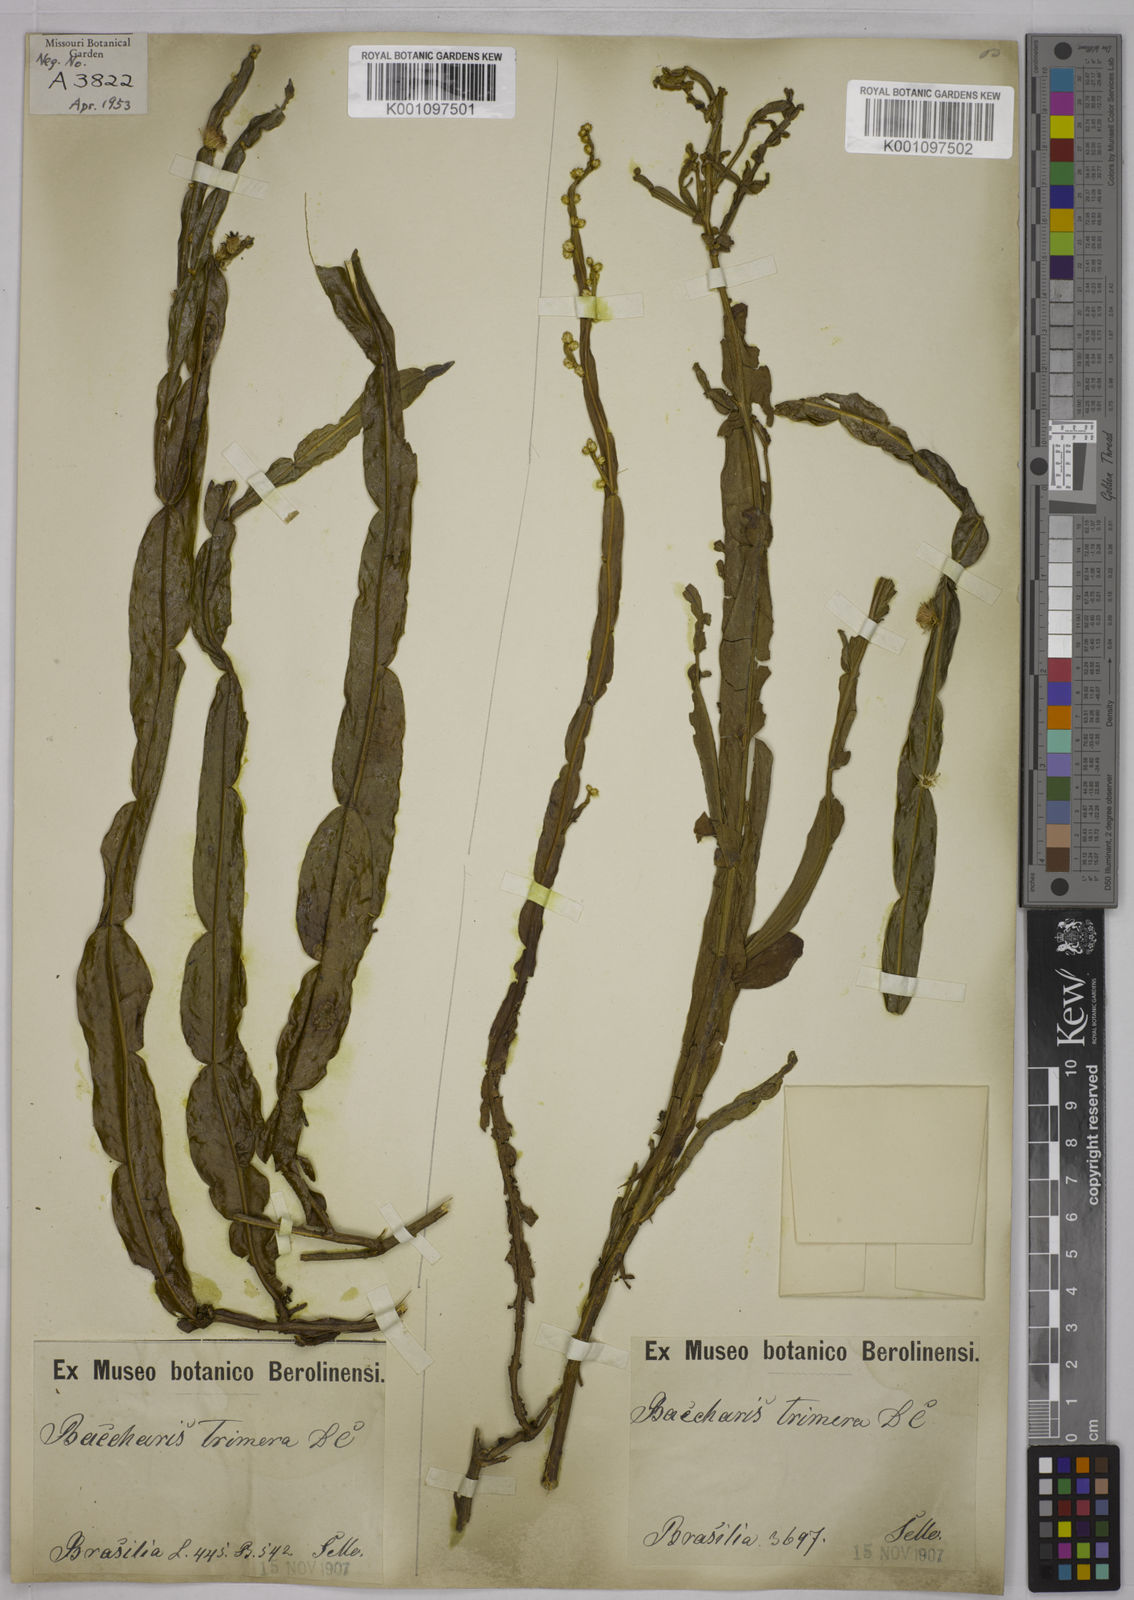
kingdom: Plantae
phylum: Tracheophyta
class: Magnoliopsida
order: Asterales
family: Asteraceae
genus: Baccharis
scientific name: Baccharis genistelloides
